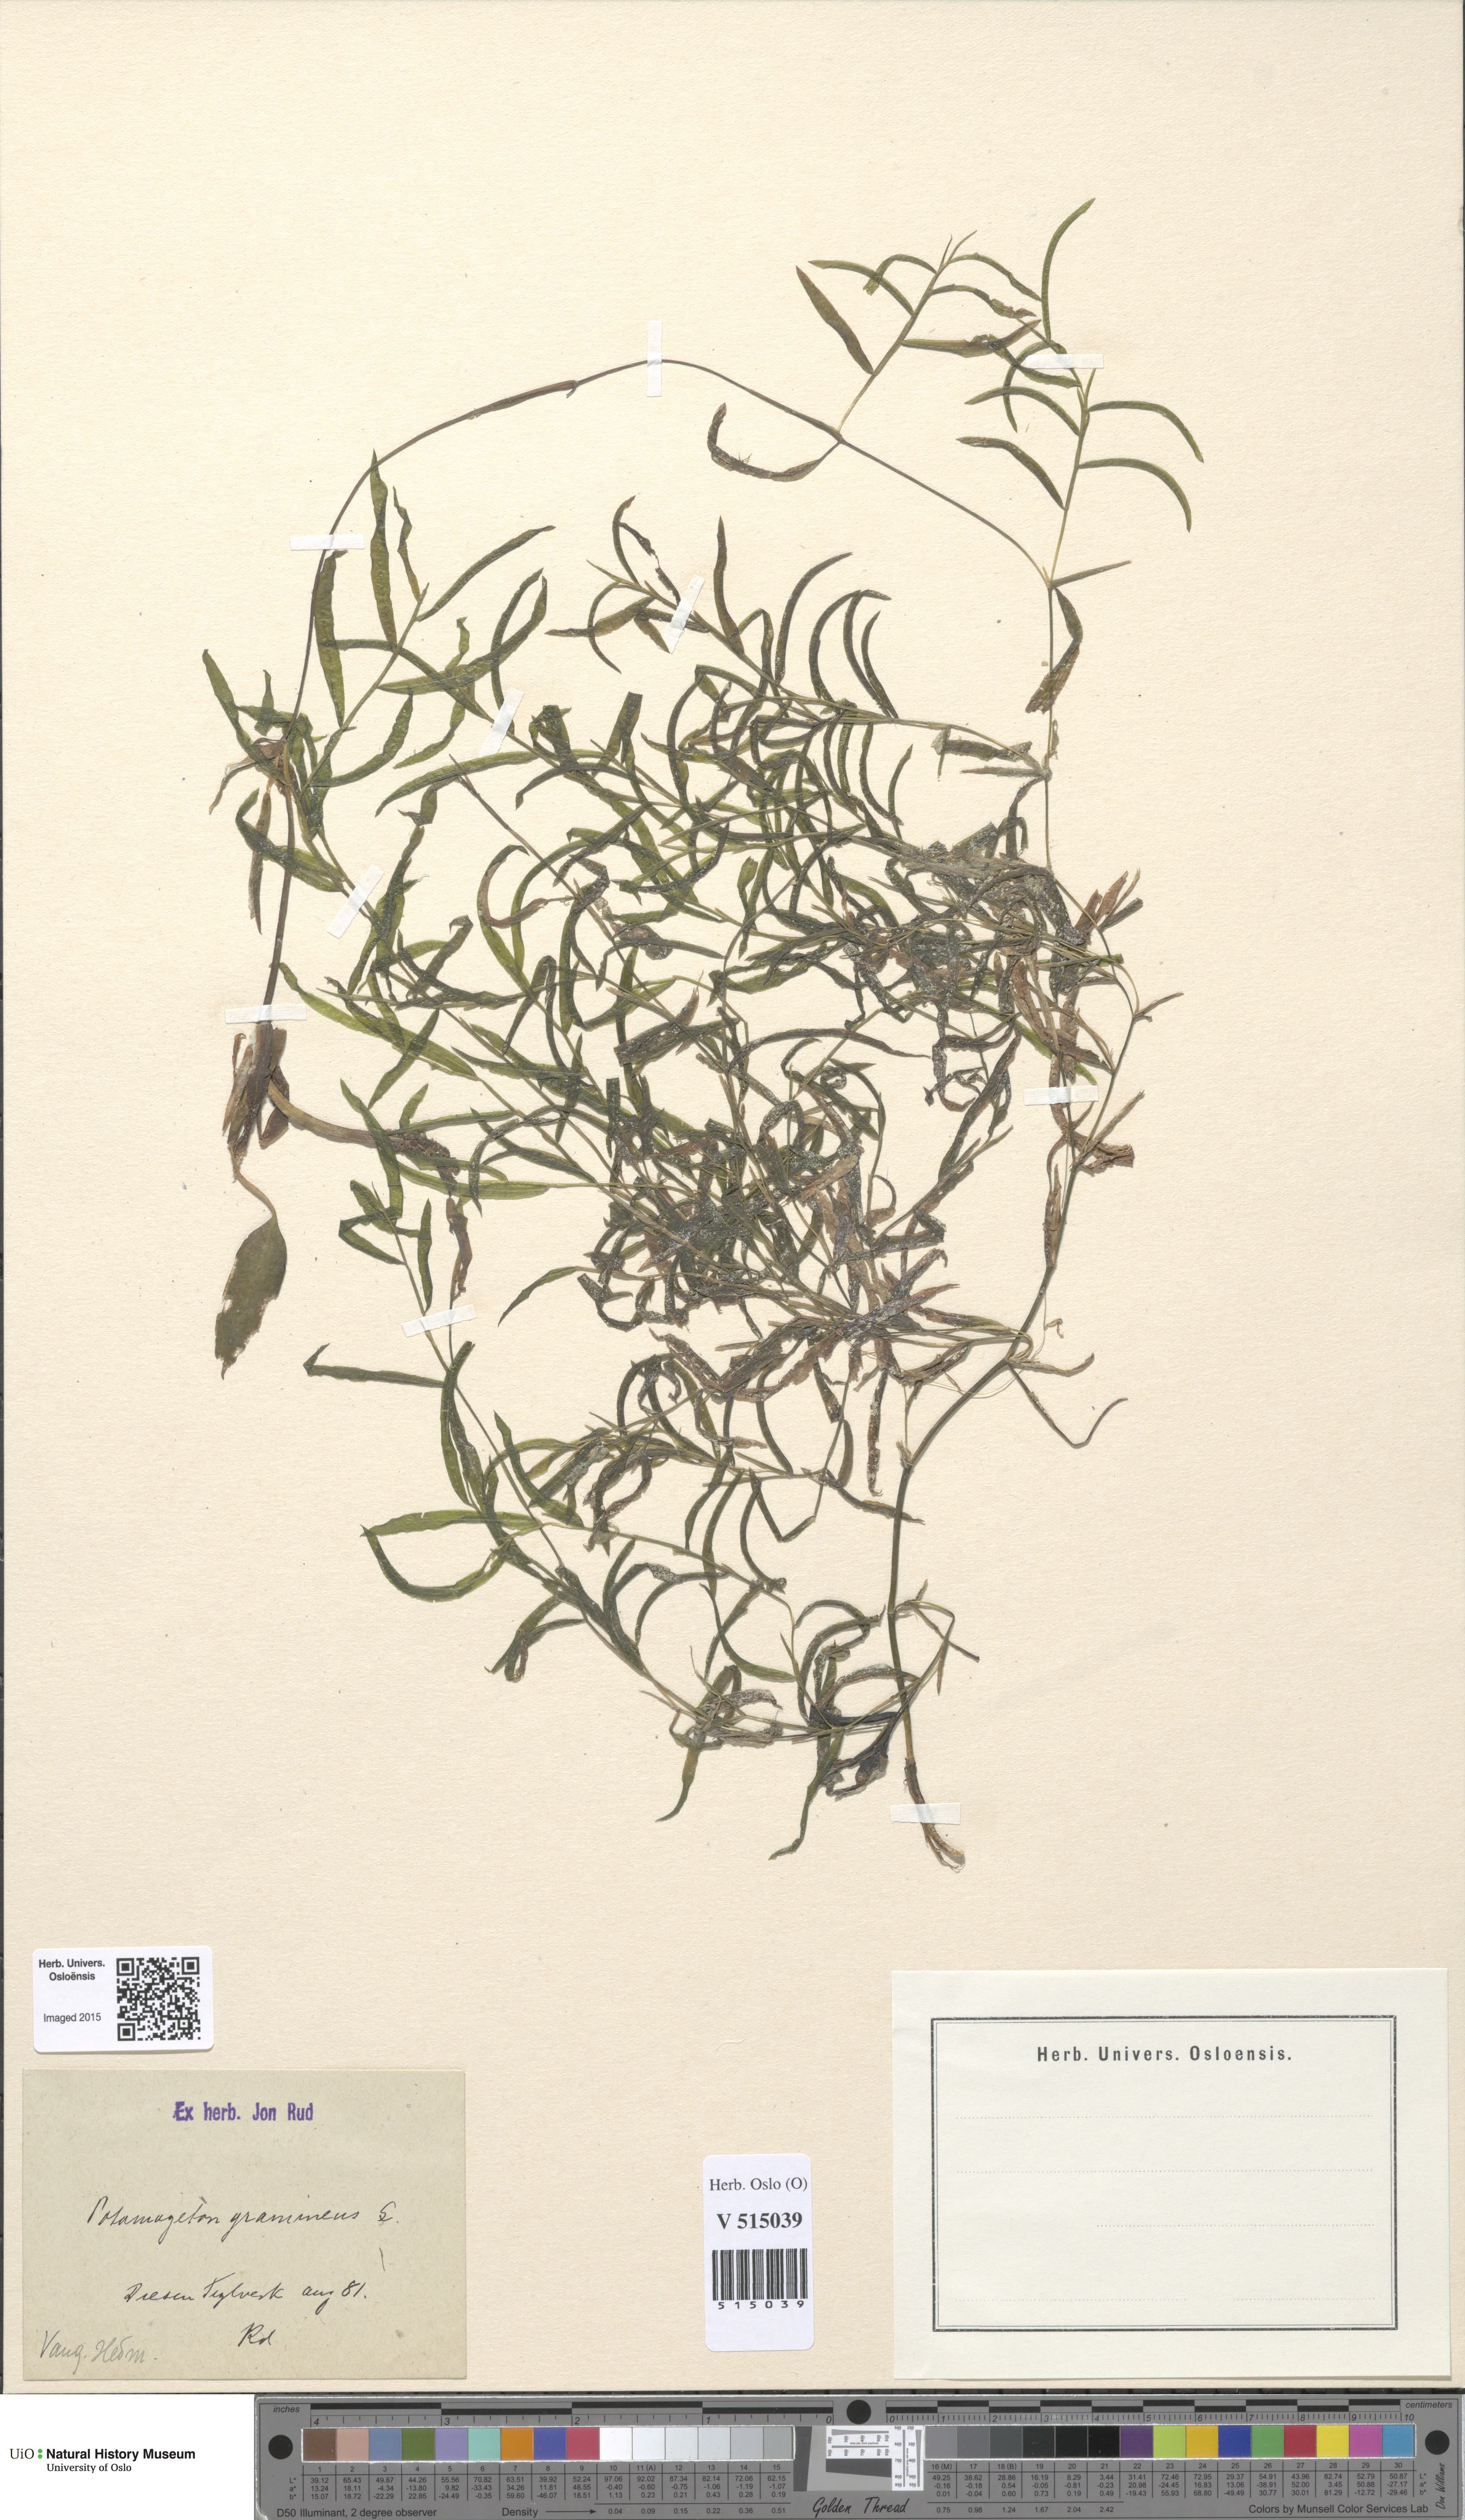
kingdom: Plantae
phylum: Tracheophyta
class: Liliopsida
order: Alismatales
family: Potamogetonaceae
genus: Potamogeton
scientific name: Potamogeton gramineus
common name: Various-leaved pondweed
